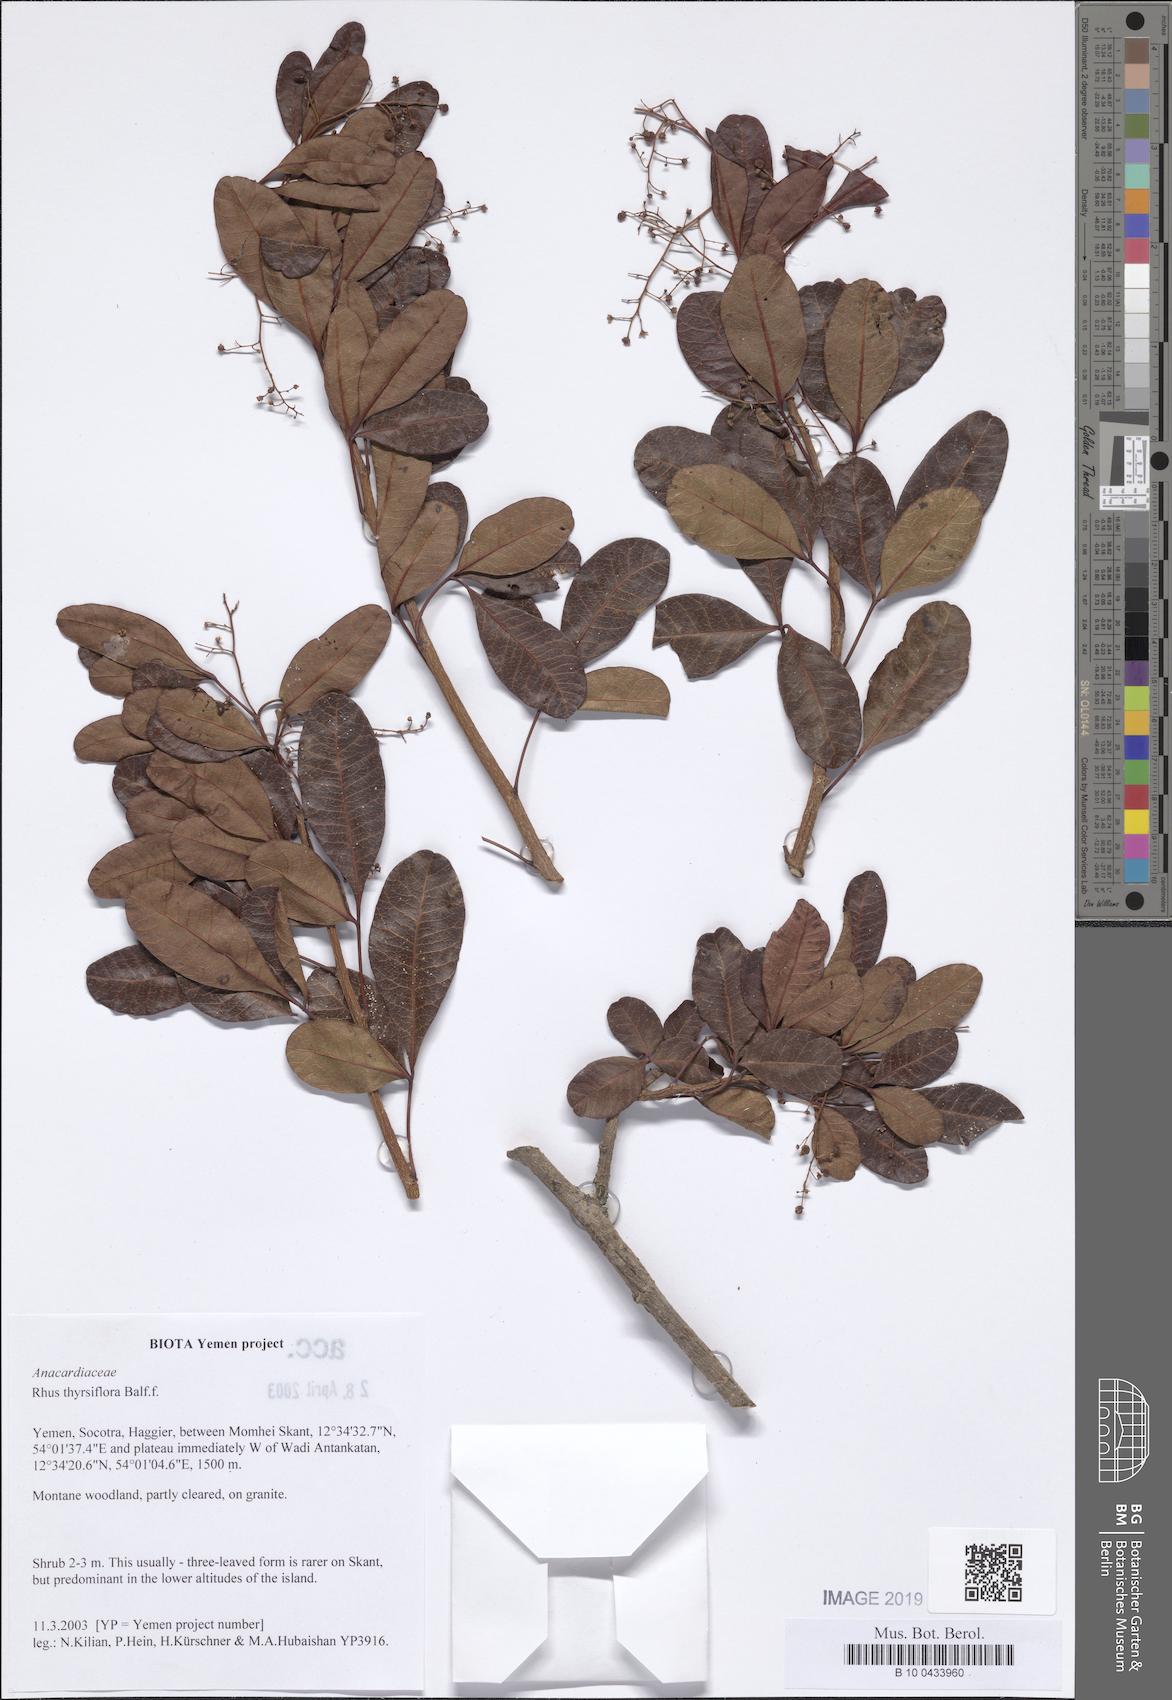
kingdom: Plantae
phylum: Tracheophyta
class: Magnoliopsida
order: Sapindales
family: Anacardiaceae
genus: Searsia
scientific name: Searsia thyrsiflora
